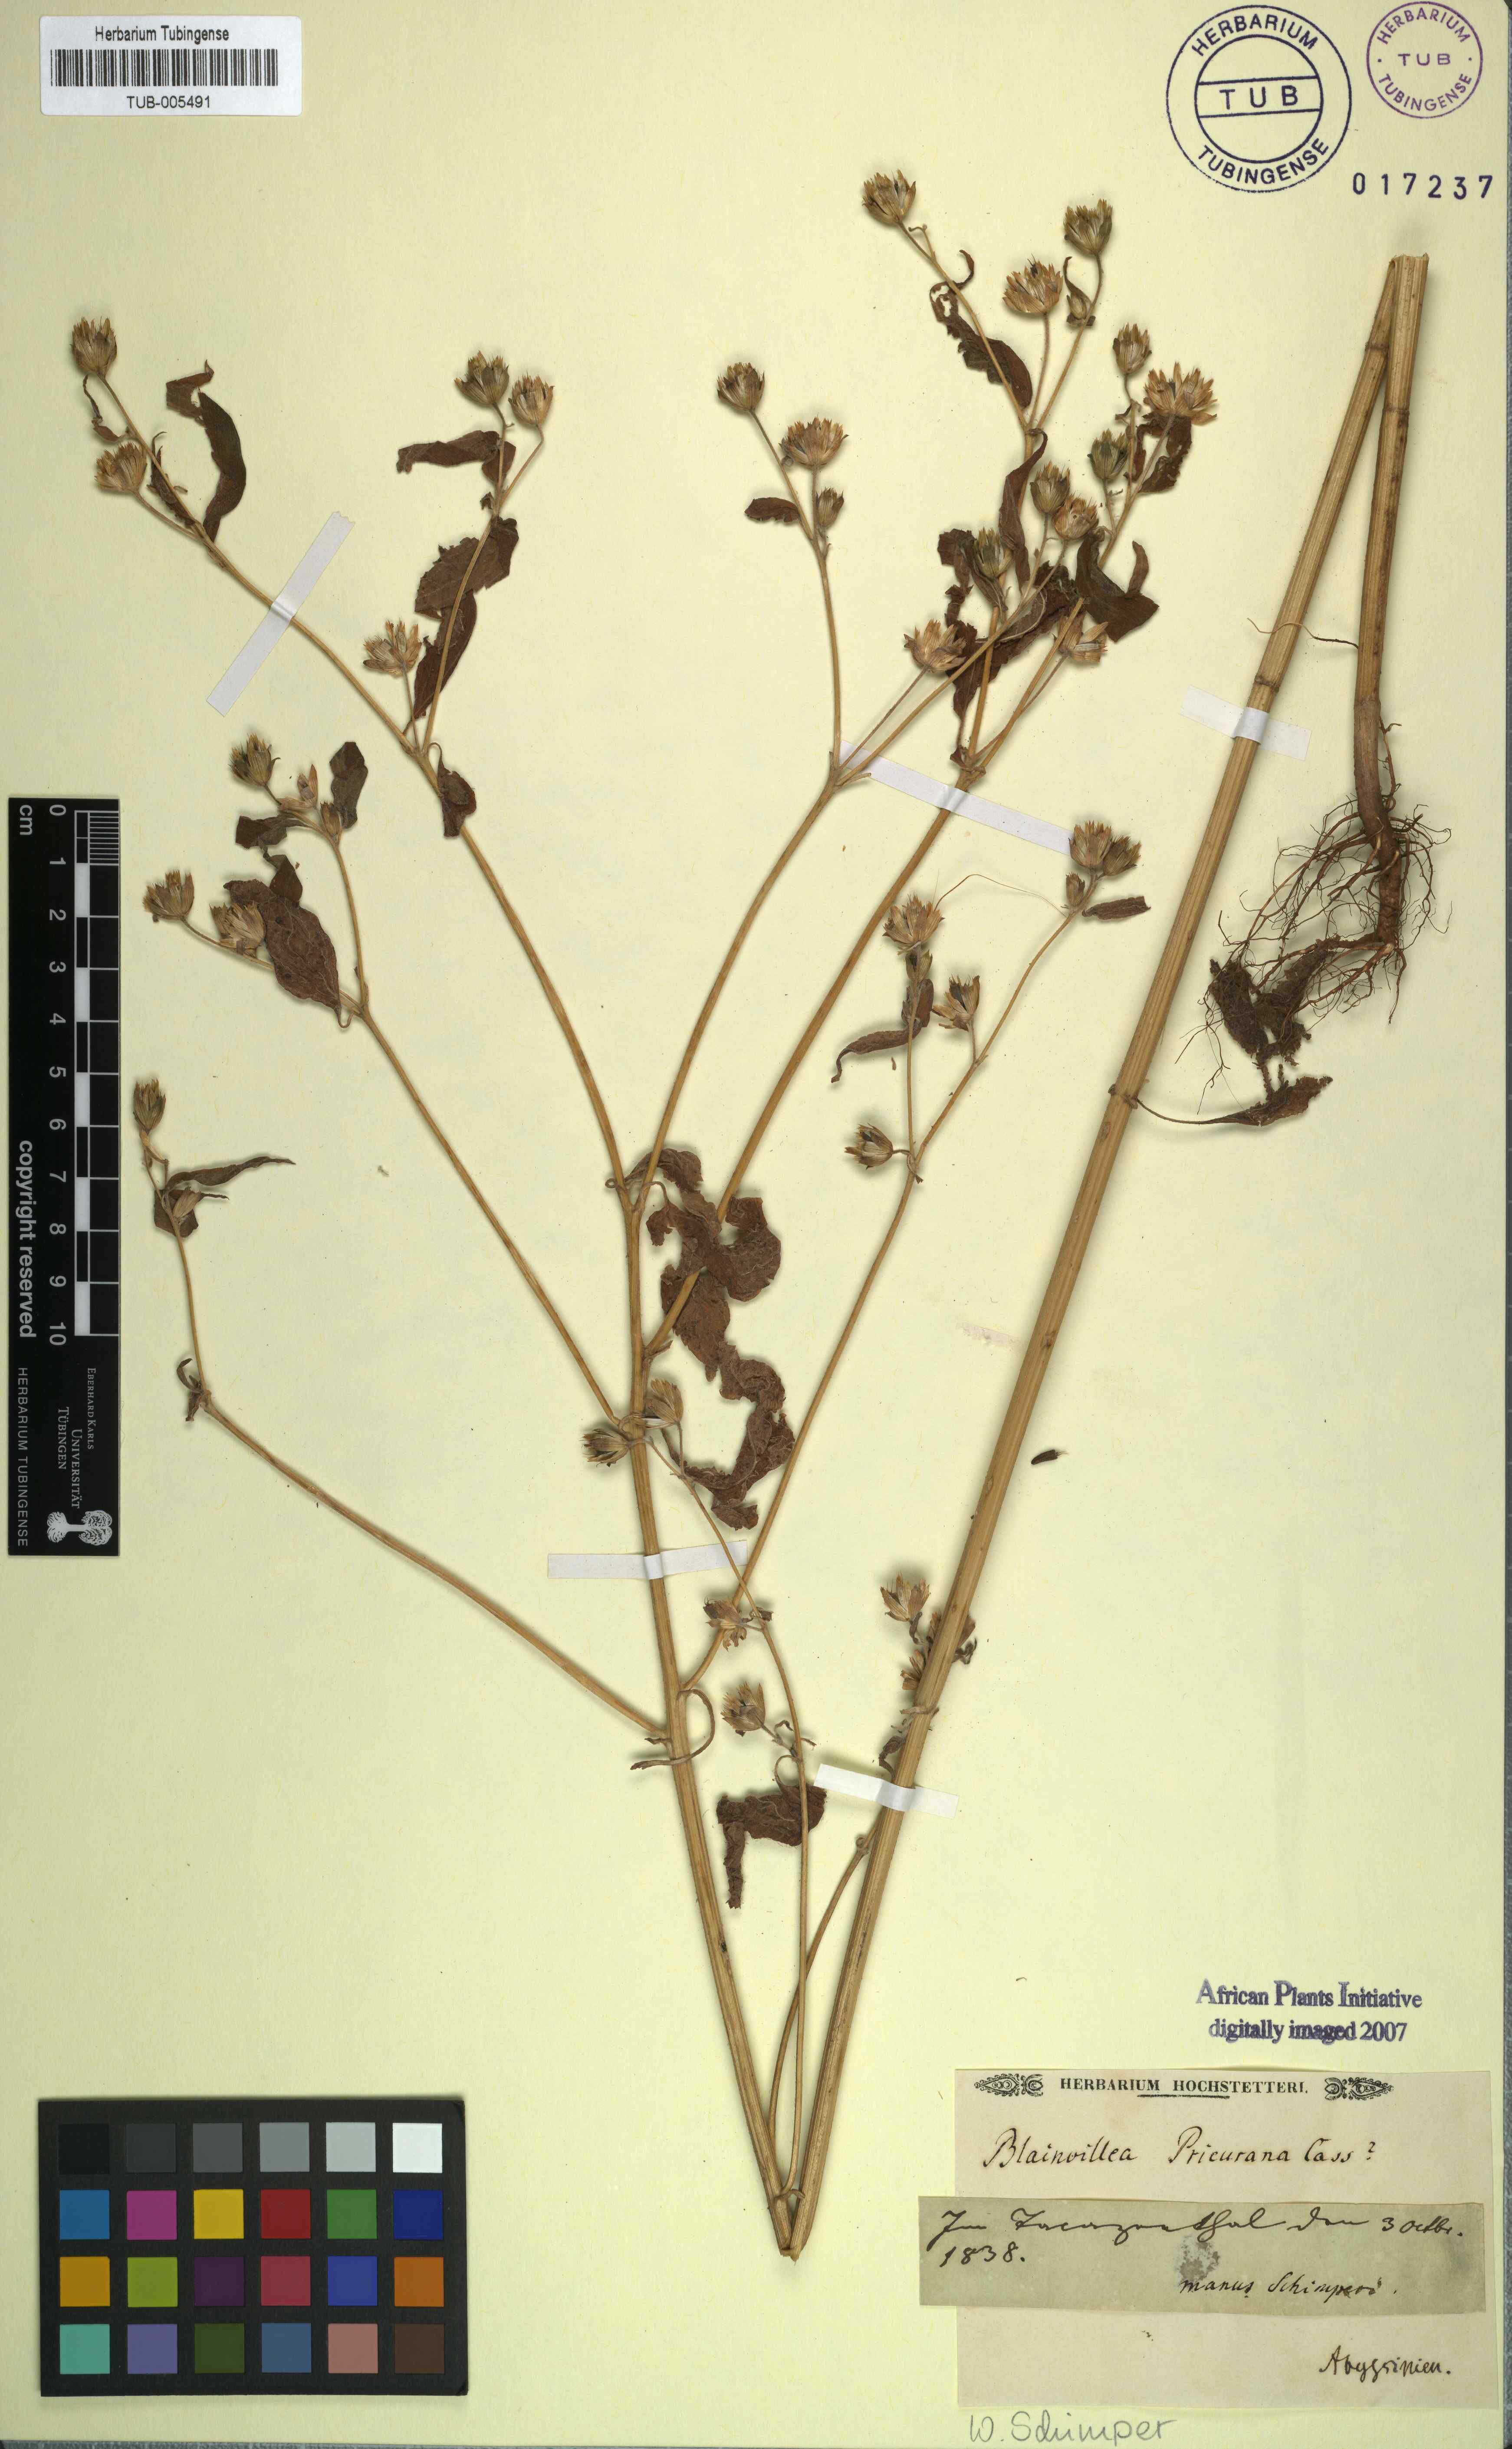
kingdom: Plantae
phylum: Tracheophyta
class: Magnoliopsida
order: Asterales
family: Asteraceae
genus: Aspilia
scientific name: Aspilia helianthoides
